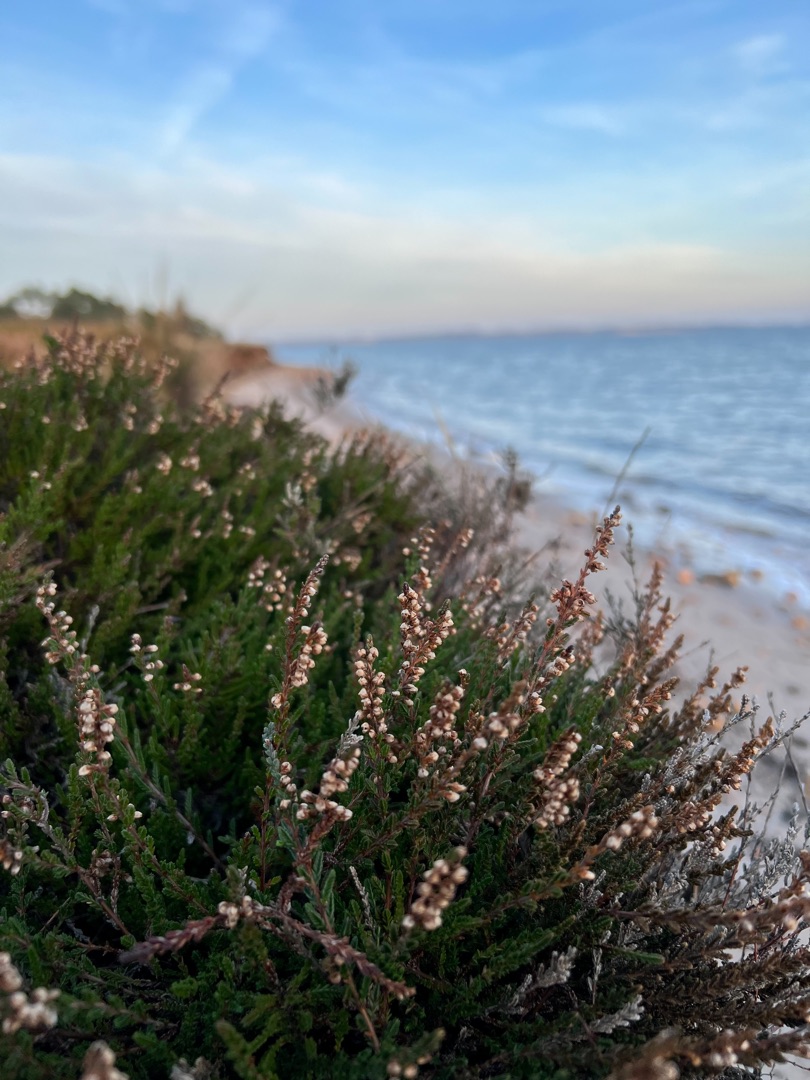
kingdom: Plantae
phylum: Tracheophyta
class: Magnoliopsida
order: Ericales
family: Ericaceae
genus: Calluna
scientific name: Calluna vulgaris
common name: Hedelyng
